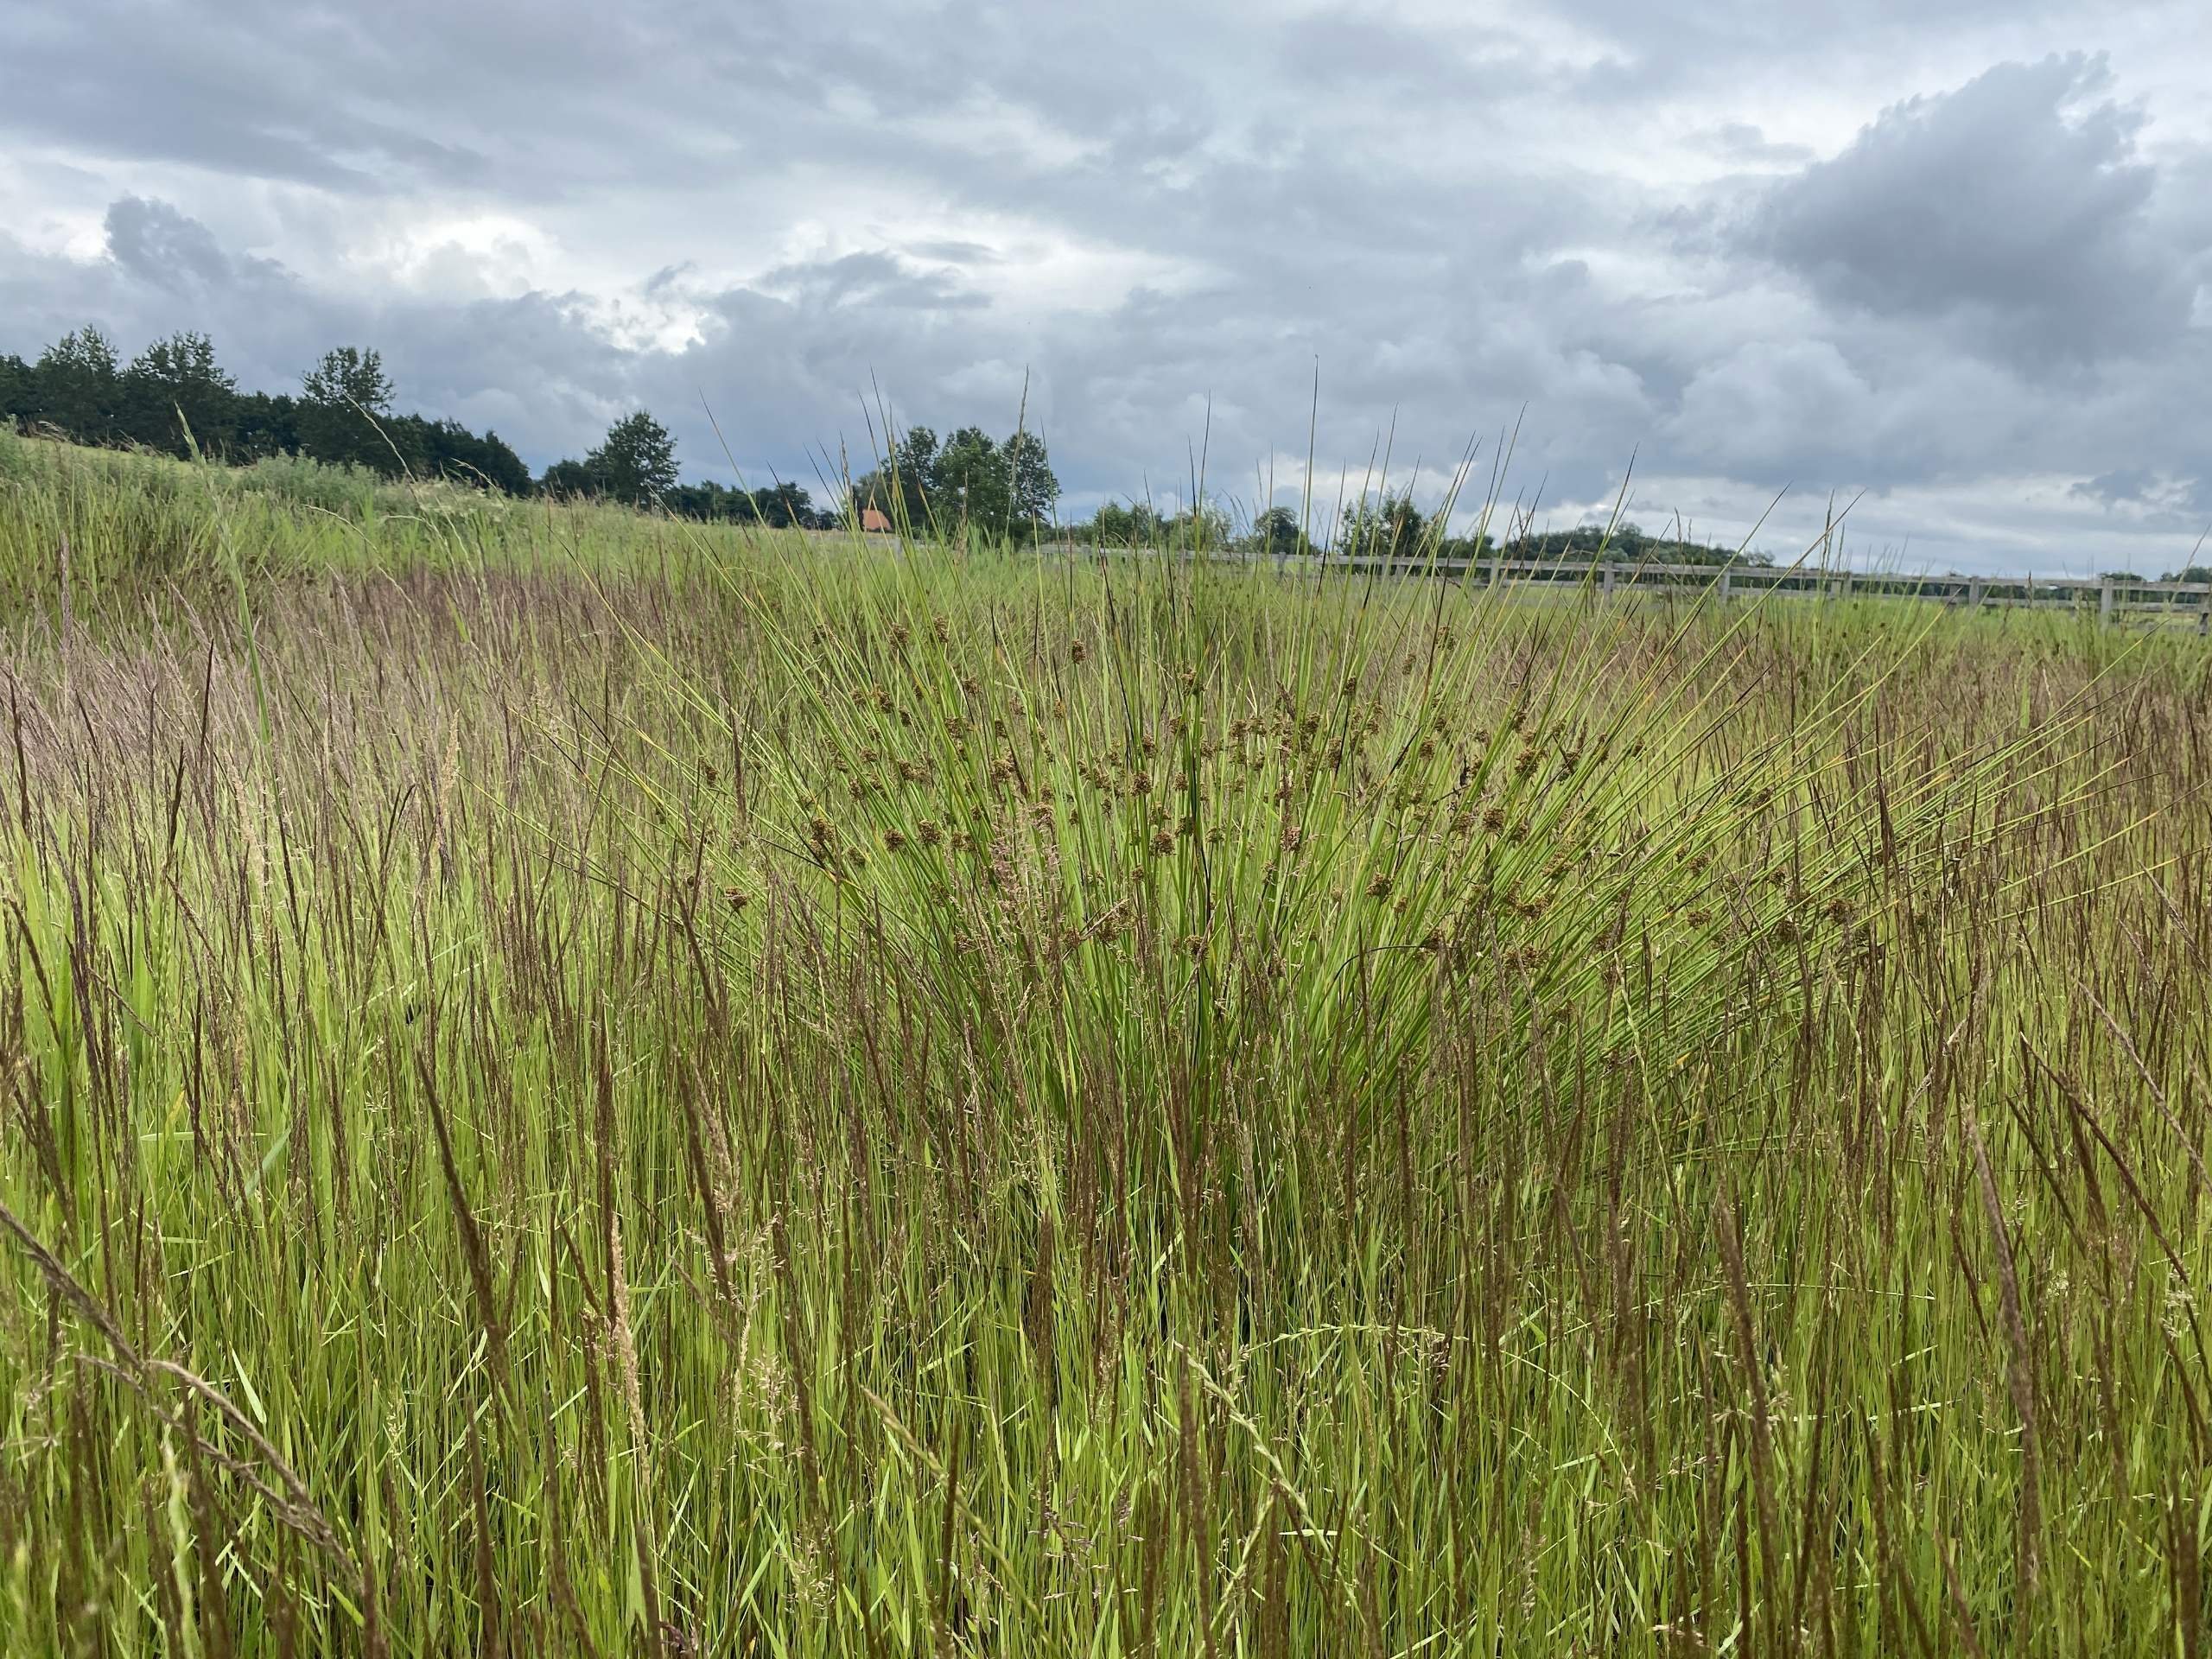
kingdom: Plantae
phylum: Tracheophyta
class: Liliopsida
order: Poales
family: Juncaceae
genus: Juncus
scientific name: Juncus effusus
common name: Lyse-siv
